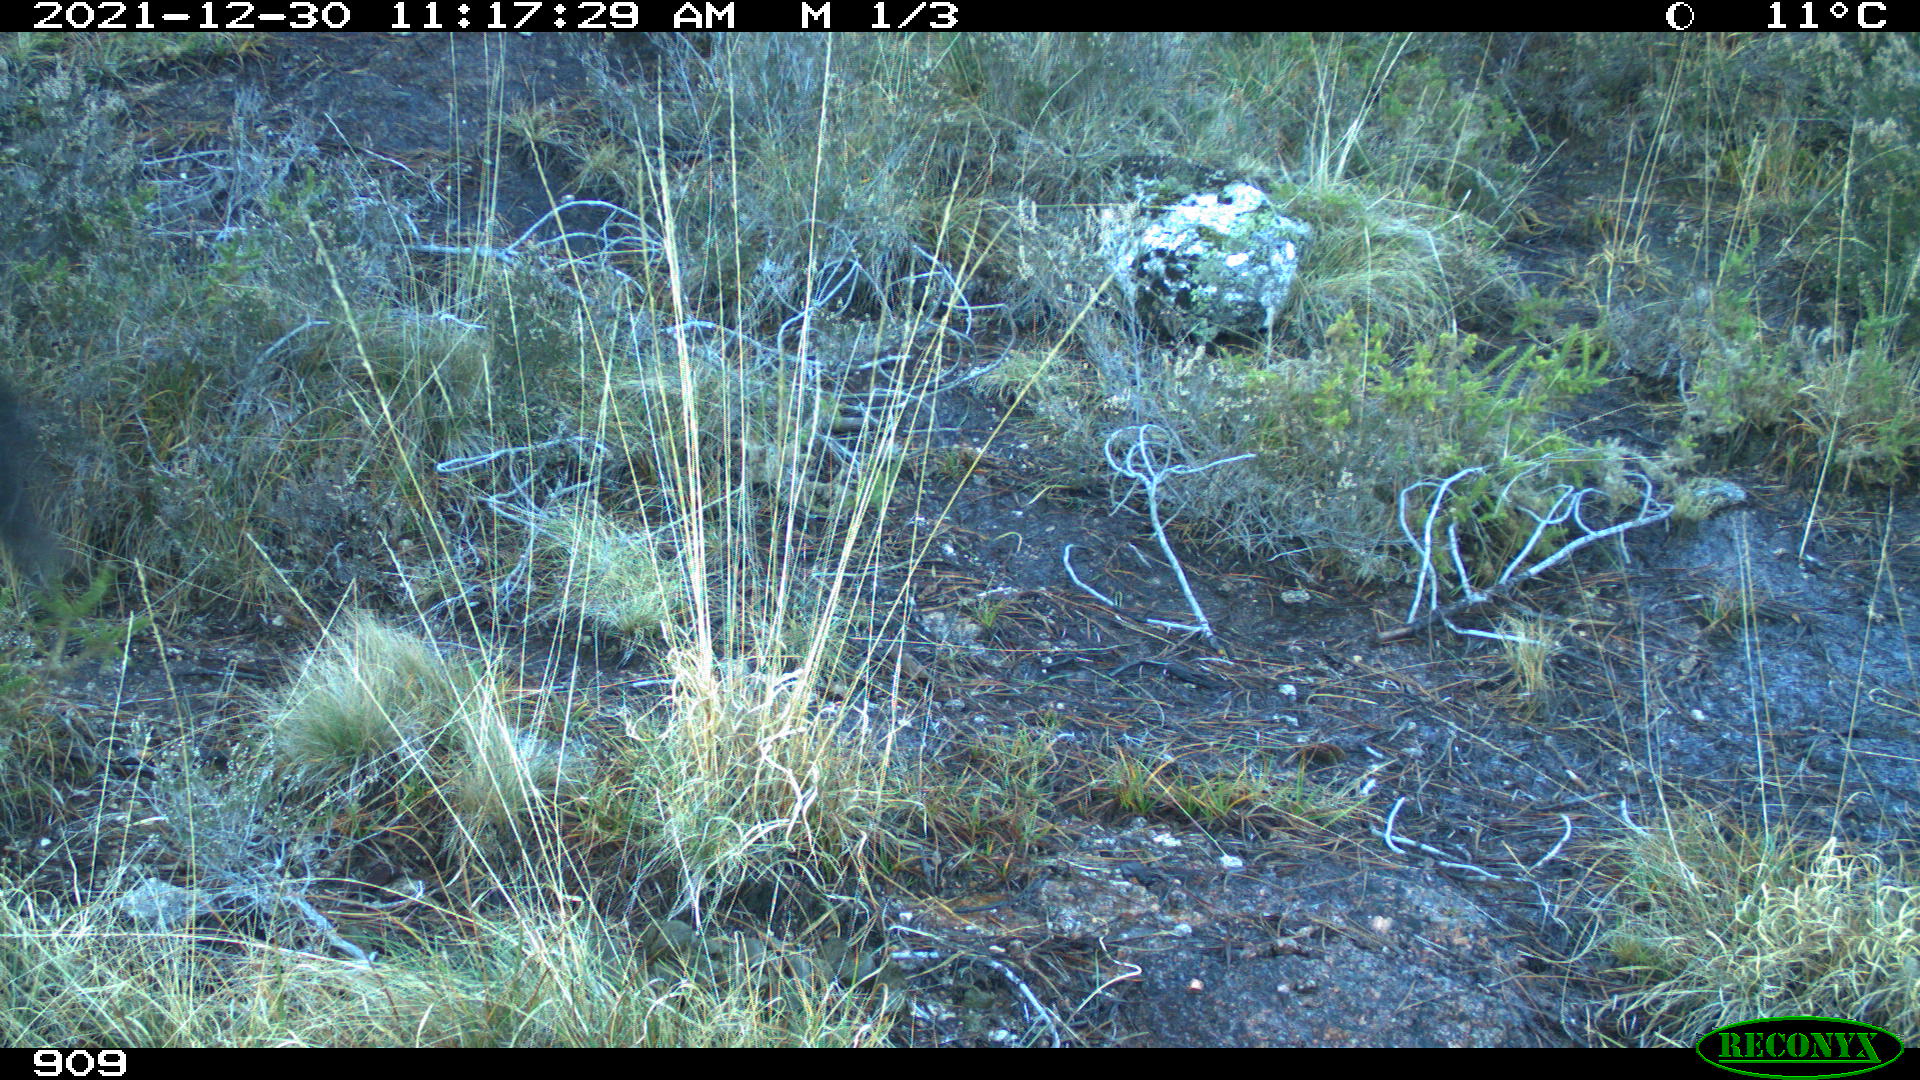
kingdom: Animalia
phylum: Chordata
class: Mammalia
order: Perissodactyla
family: Equidae
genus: Equus
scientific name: Equus caballus
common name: Horse
